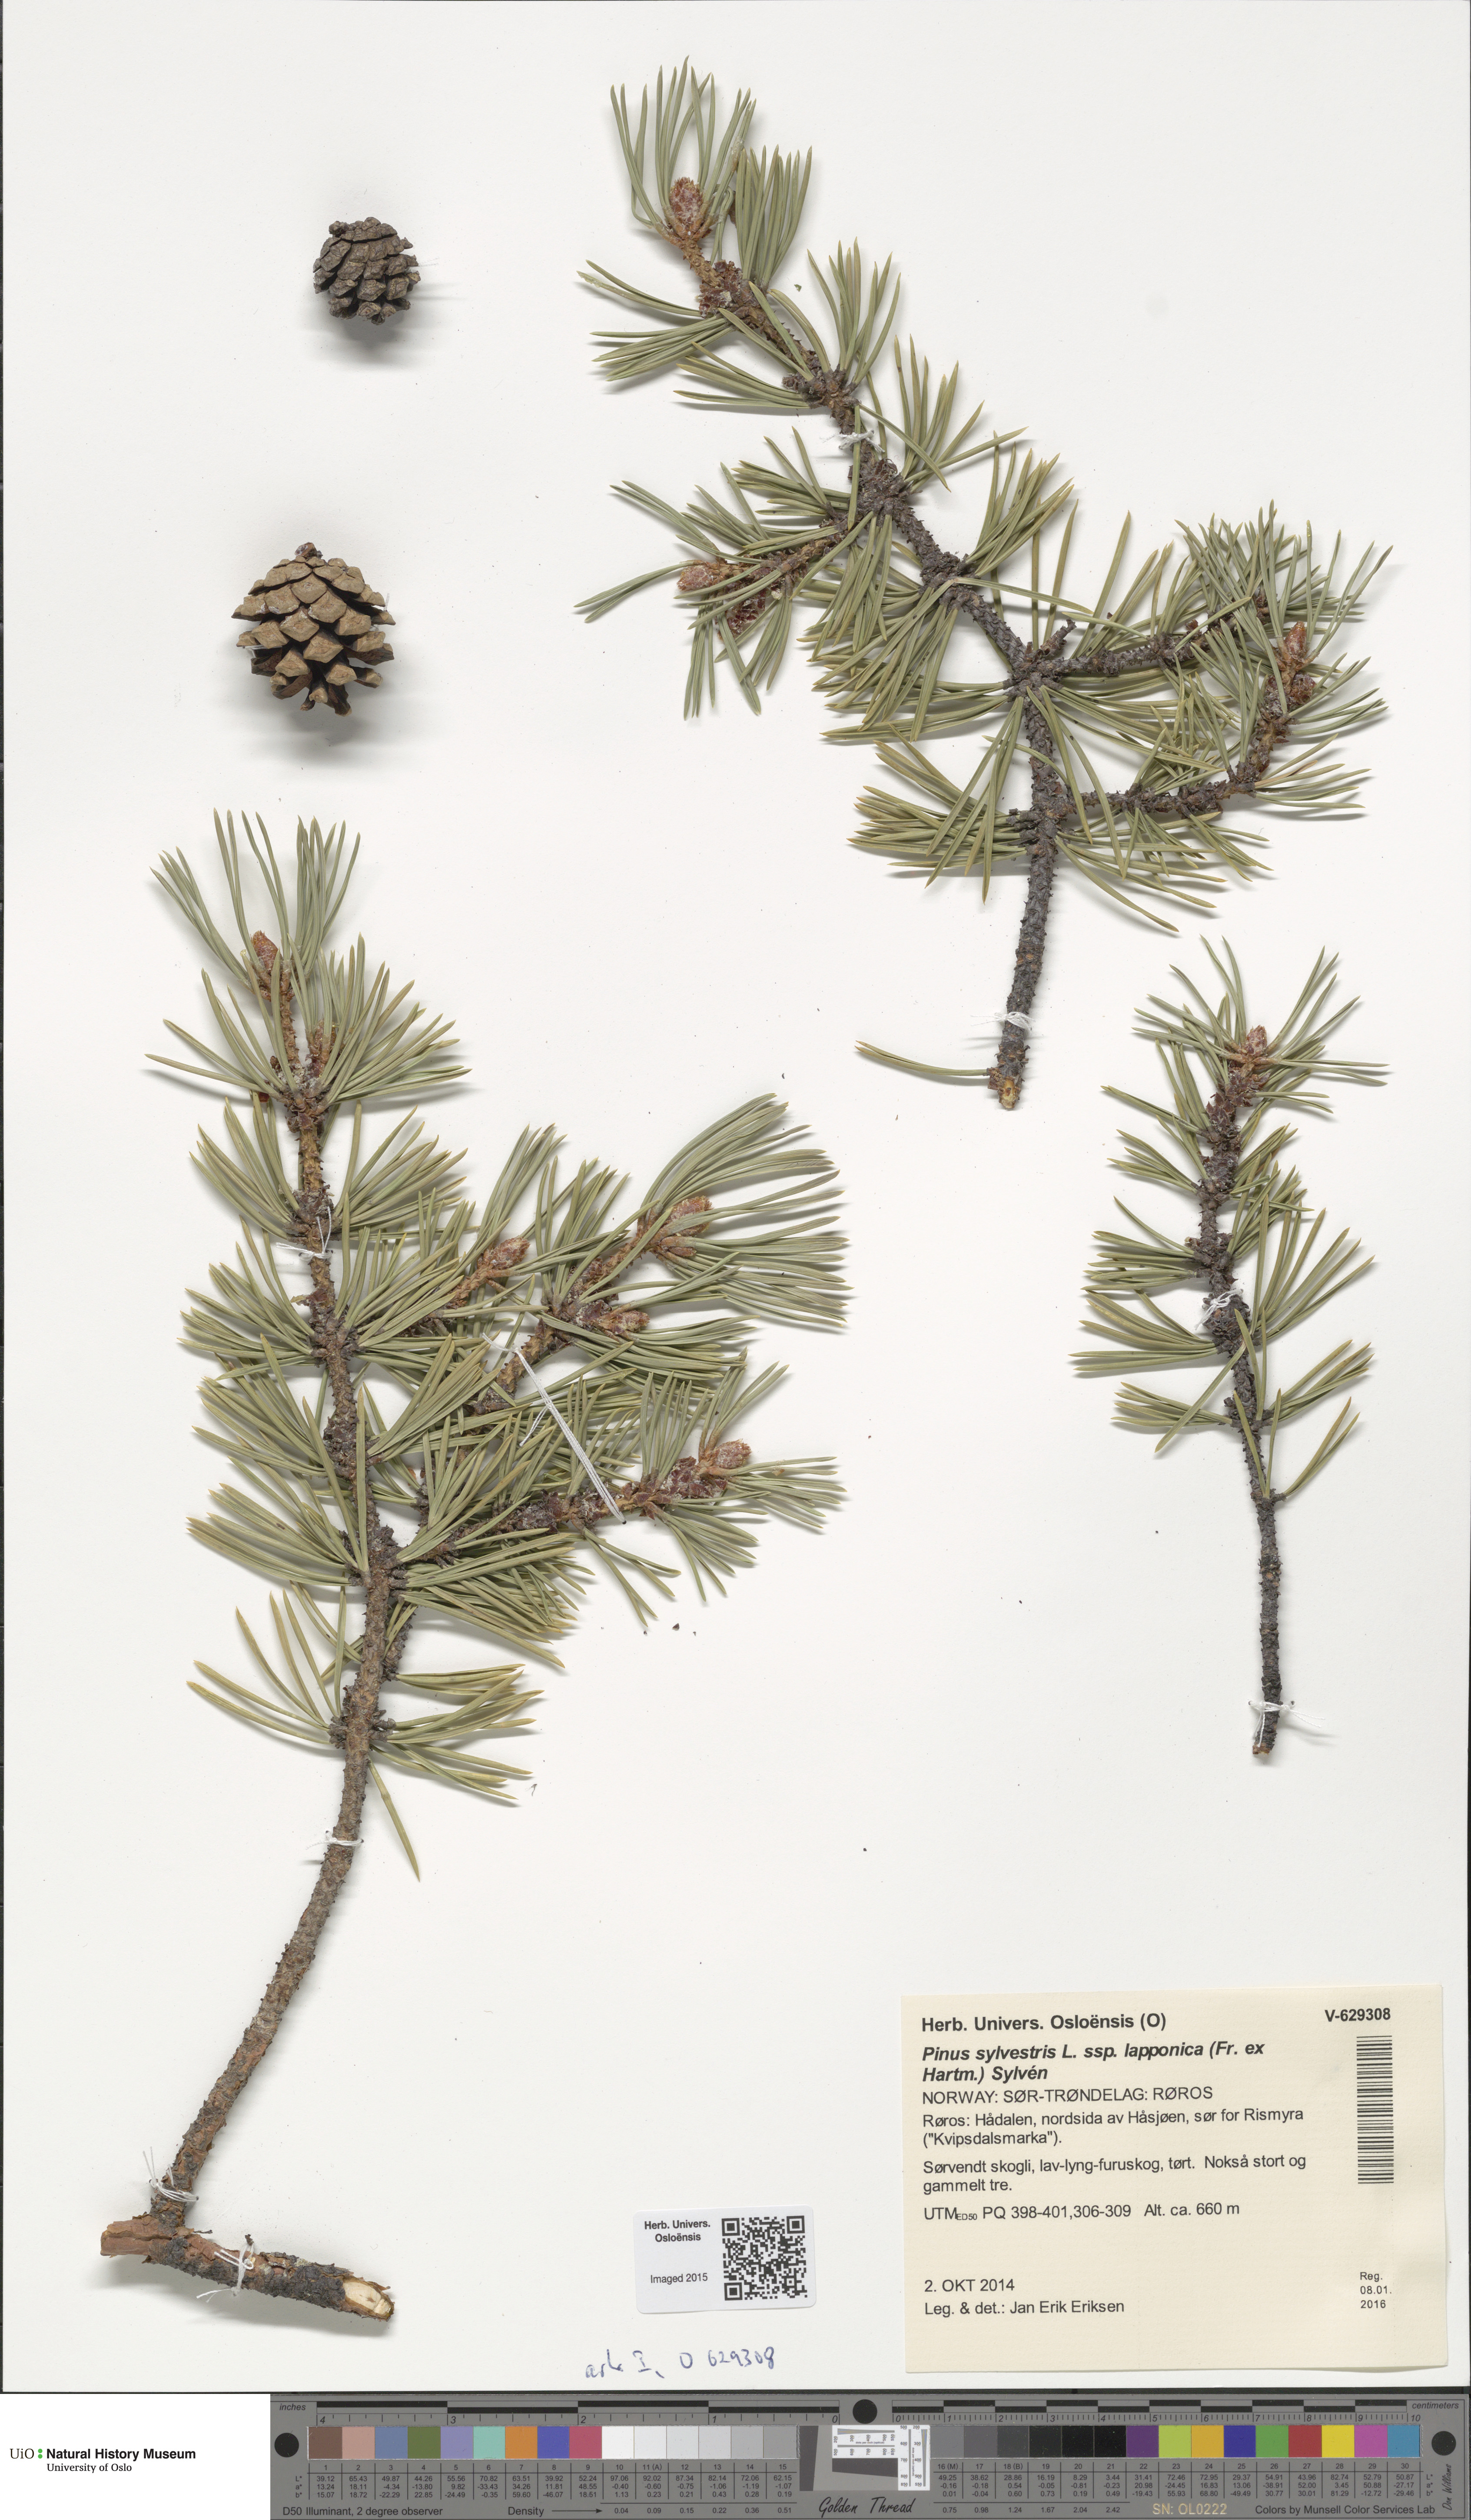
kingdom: Plantae
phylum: Tracheophyta
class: Pinopsida
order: Pinales
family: Pinaceae
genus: Pinus
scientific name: Pinus sylvestris
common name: Scots pine
